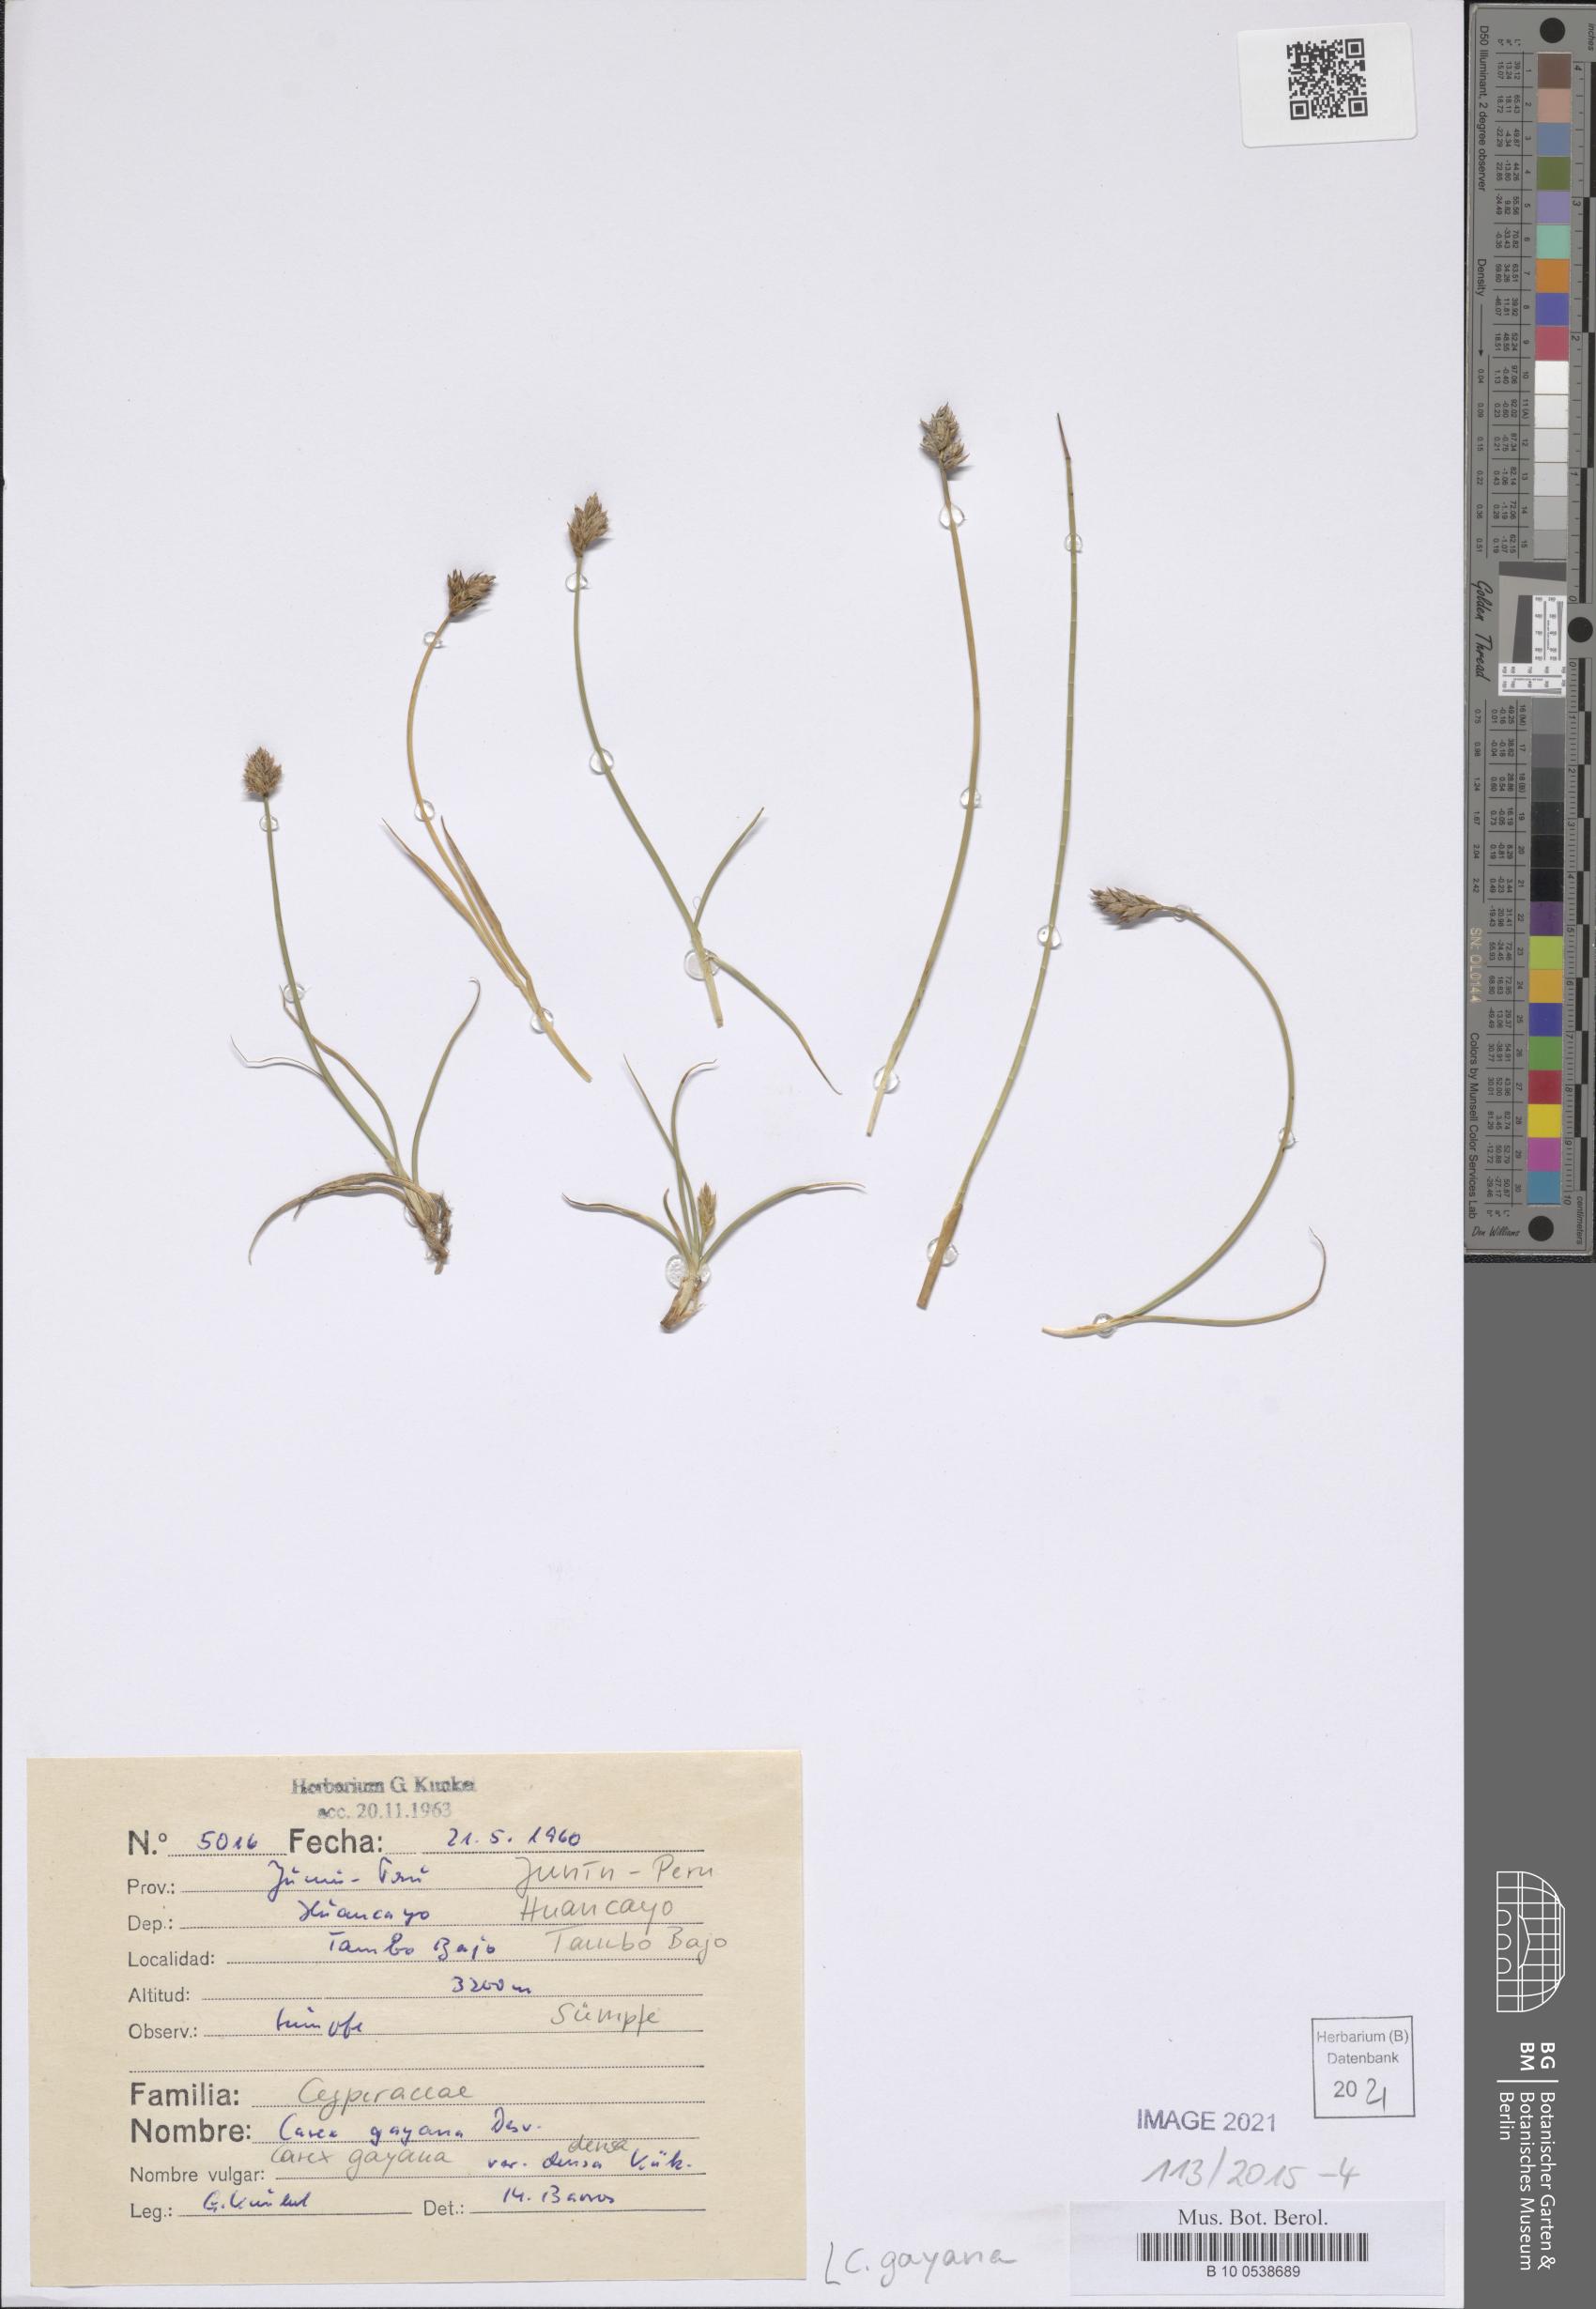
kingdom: Plantae
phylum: Tracheophyta
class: Liliopsida
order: Poales
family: Cyperaceae
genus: Carex
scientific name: Carex gayana
